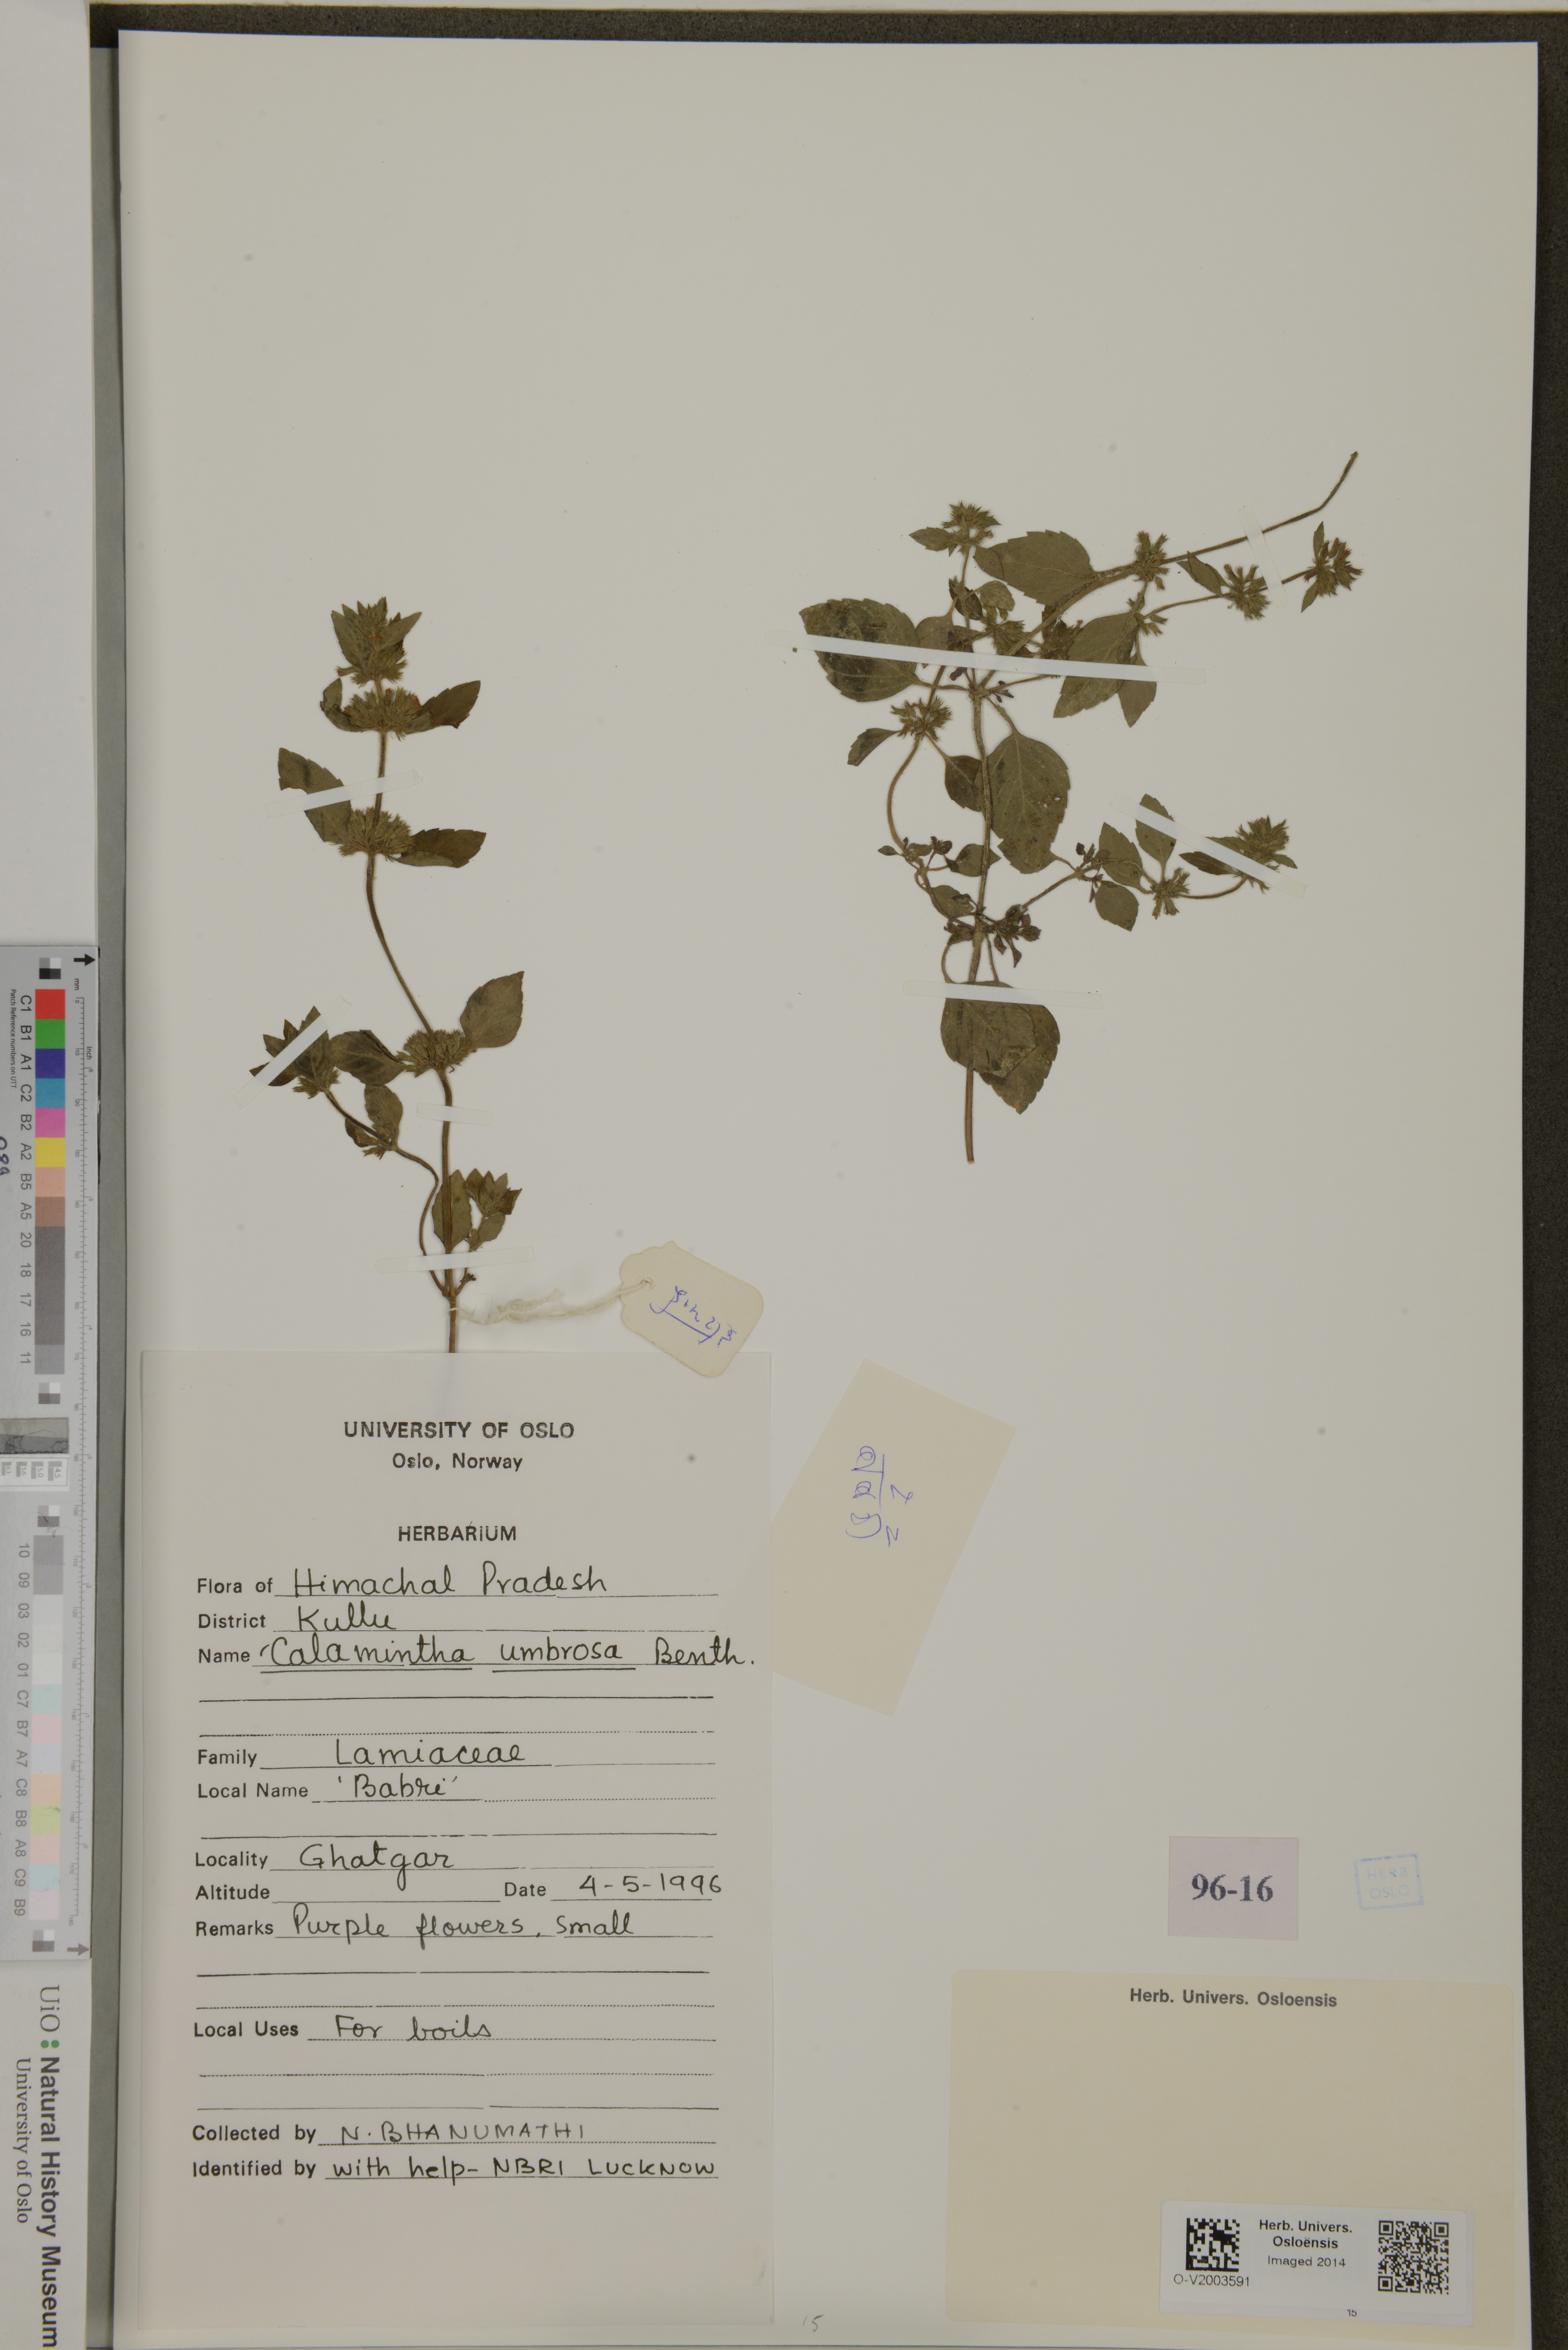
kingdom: Plantae
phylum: Tracheophyta
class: Magnoliopsida
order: Lamiales
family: Lamiaceae
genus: Calamintha
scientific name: Calamintha
